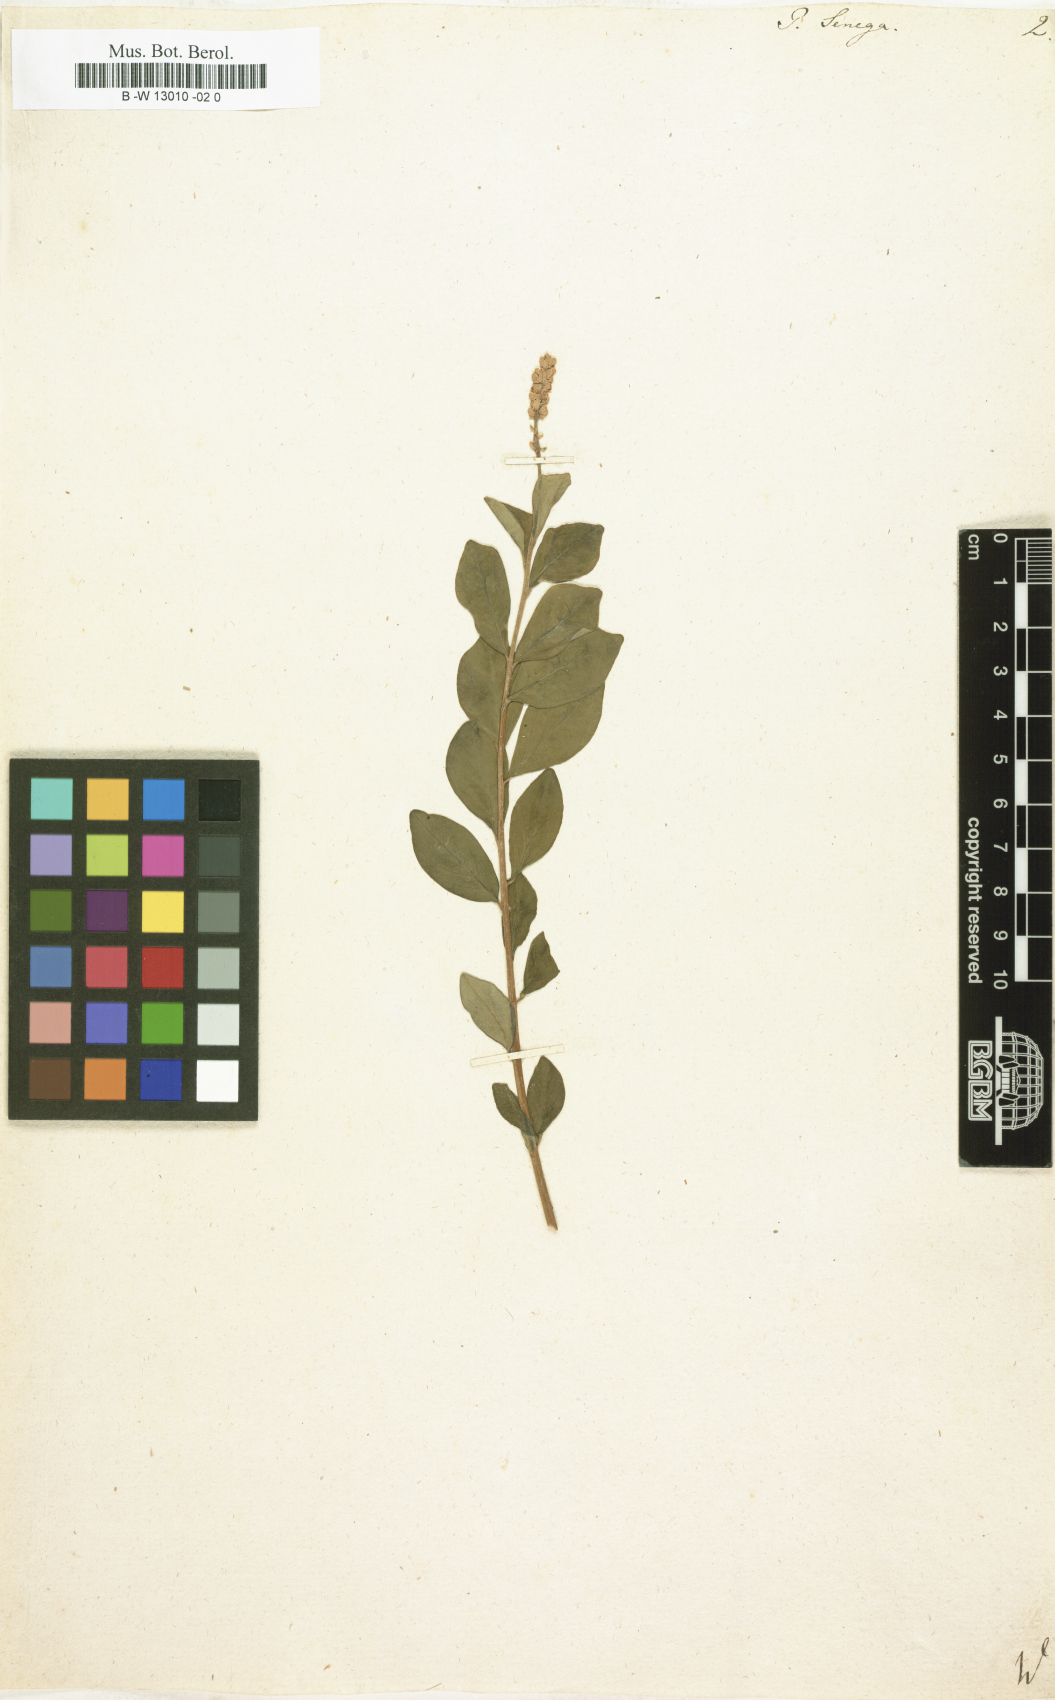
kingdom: Plantae
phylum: Tracheophyta
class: Magnoliopsida
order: Fabales
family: Polygalaceae
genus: Polygala
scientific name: Polygala senega
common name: Seneca snakeroot
